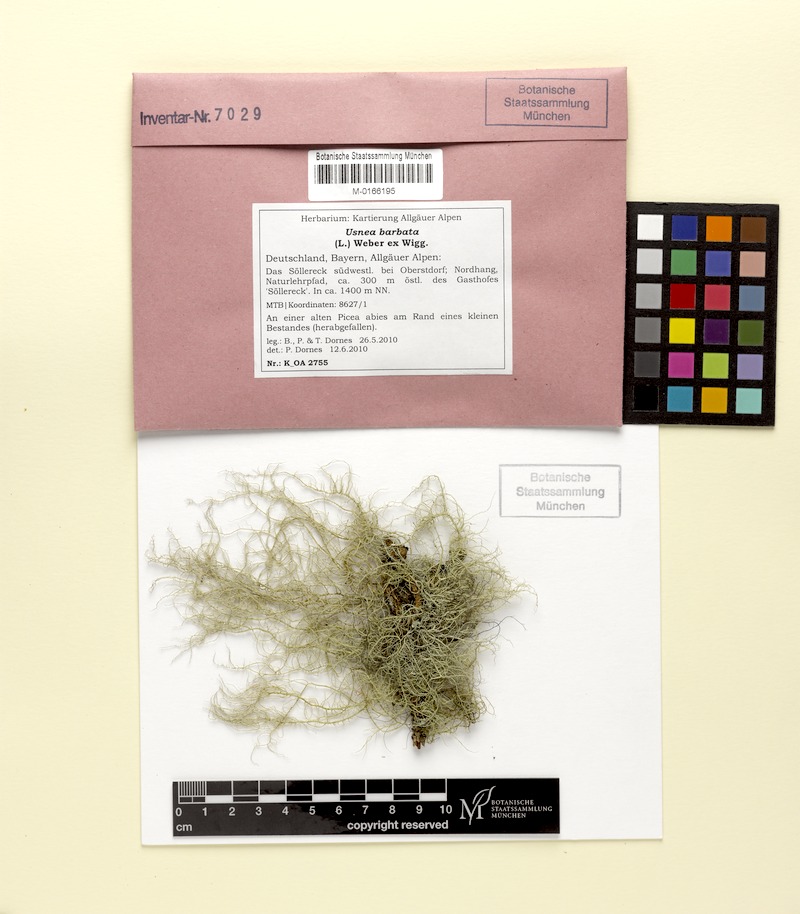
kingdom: Fungi
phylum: Ascomycota
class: Lecanoromycetes
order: Lecanorales
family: Parmeliaceae
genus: Usnea
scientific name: Usnea barbata
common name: Old man's beard lichen
